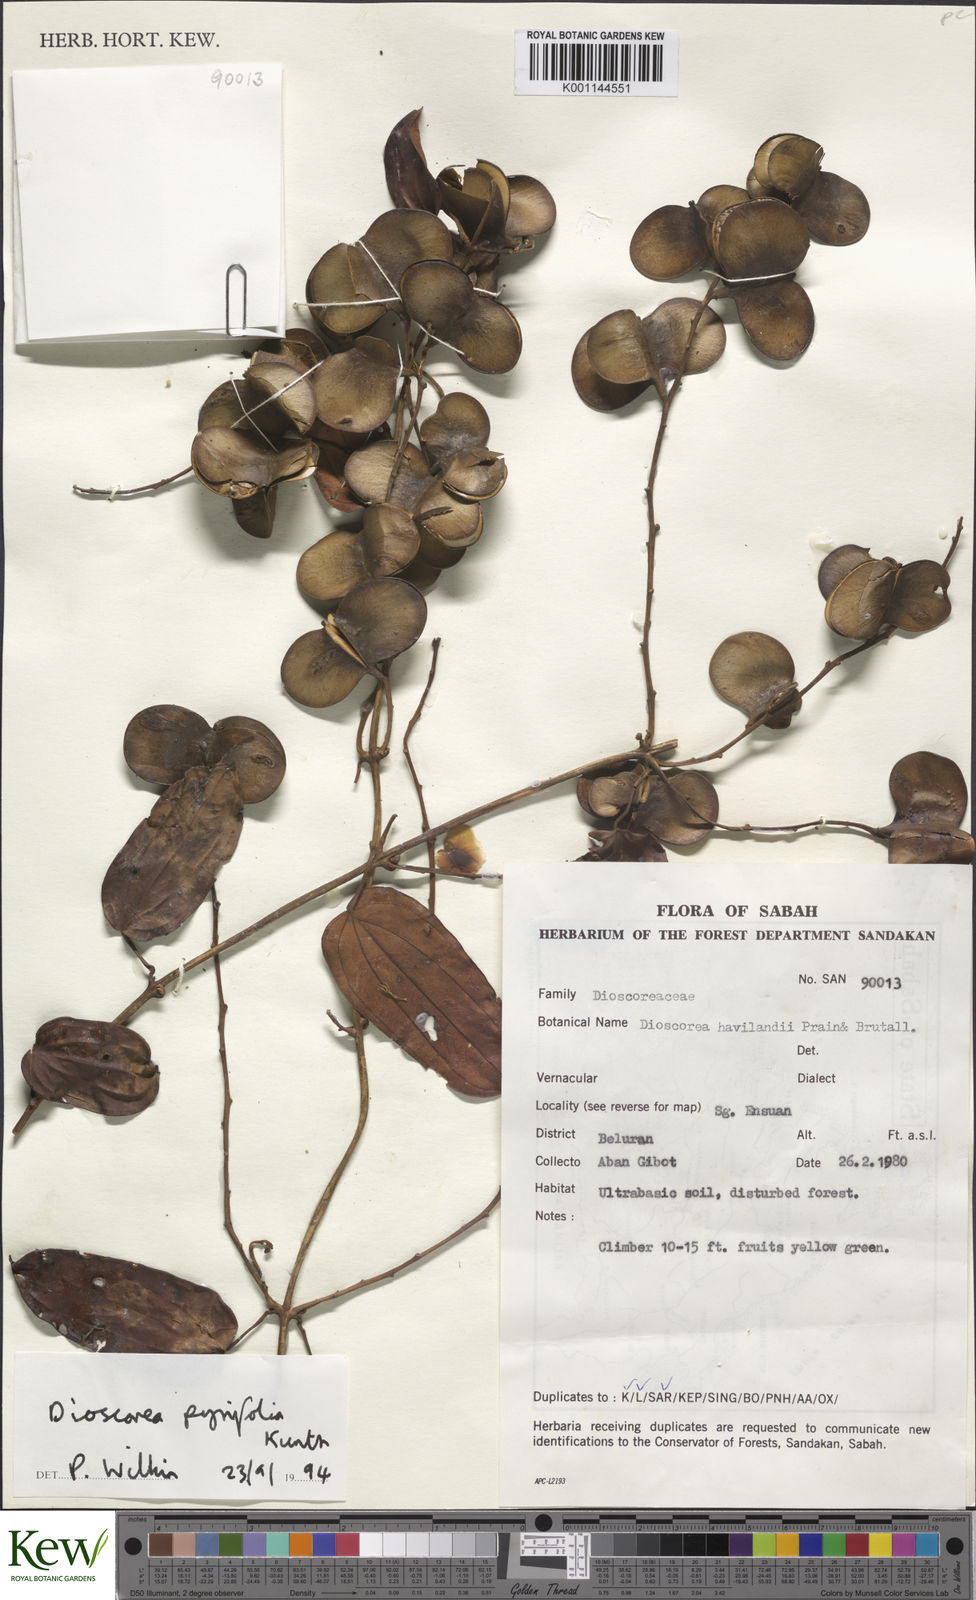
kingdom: Plantae
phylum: Tracheophyta
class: Liliopsida
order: Dioscoreales
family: Dioscoreaceae
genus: Dioscorea
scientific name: Dioscorea pyrifolia
